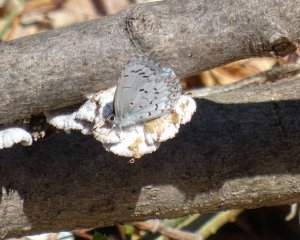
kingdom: Animalia
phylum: Arthropoda
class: Insecta
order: Lepidoptera
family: Lycaenidae
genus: Celastrina
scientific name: Celastrina lucia
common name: Northern Spring Azure
